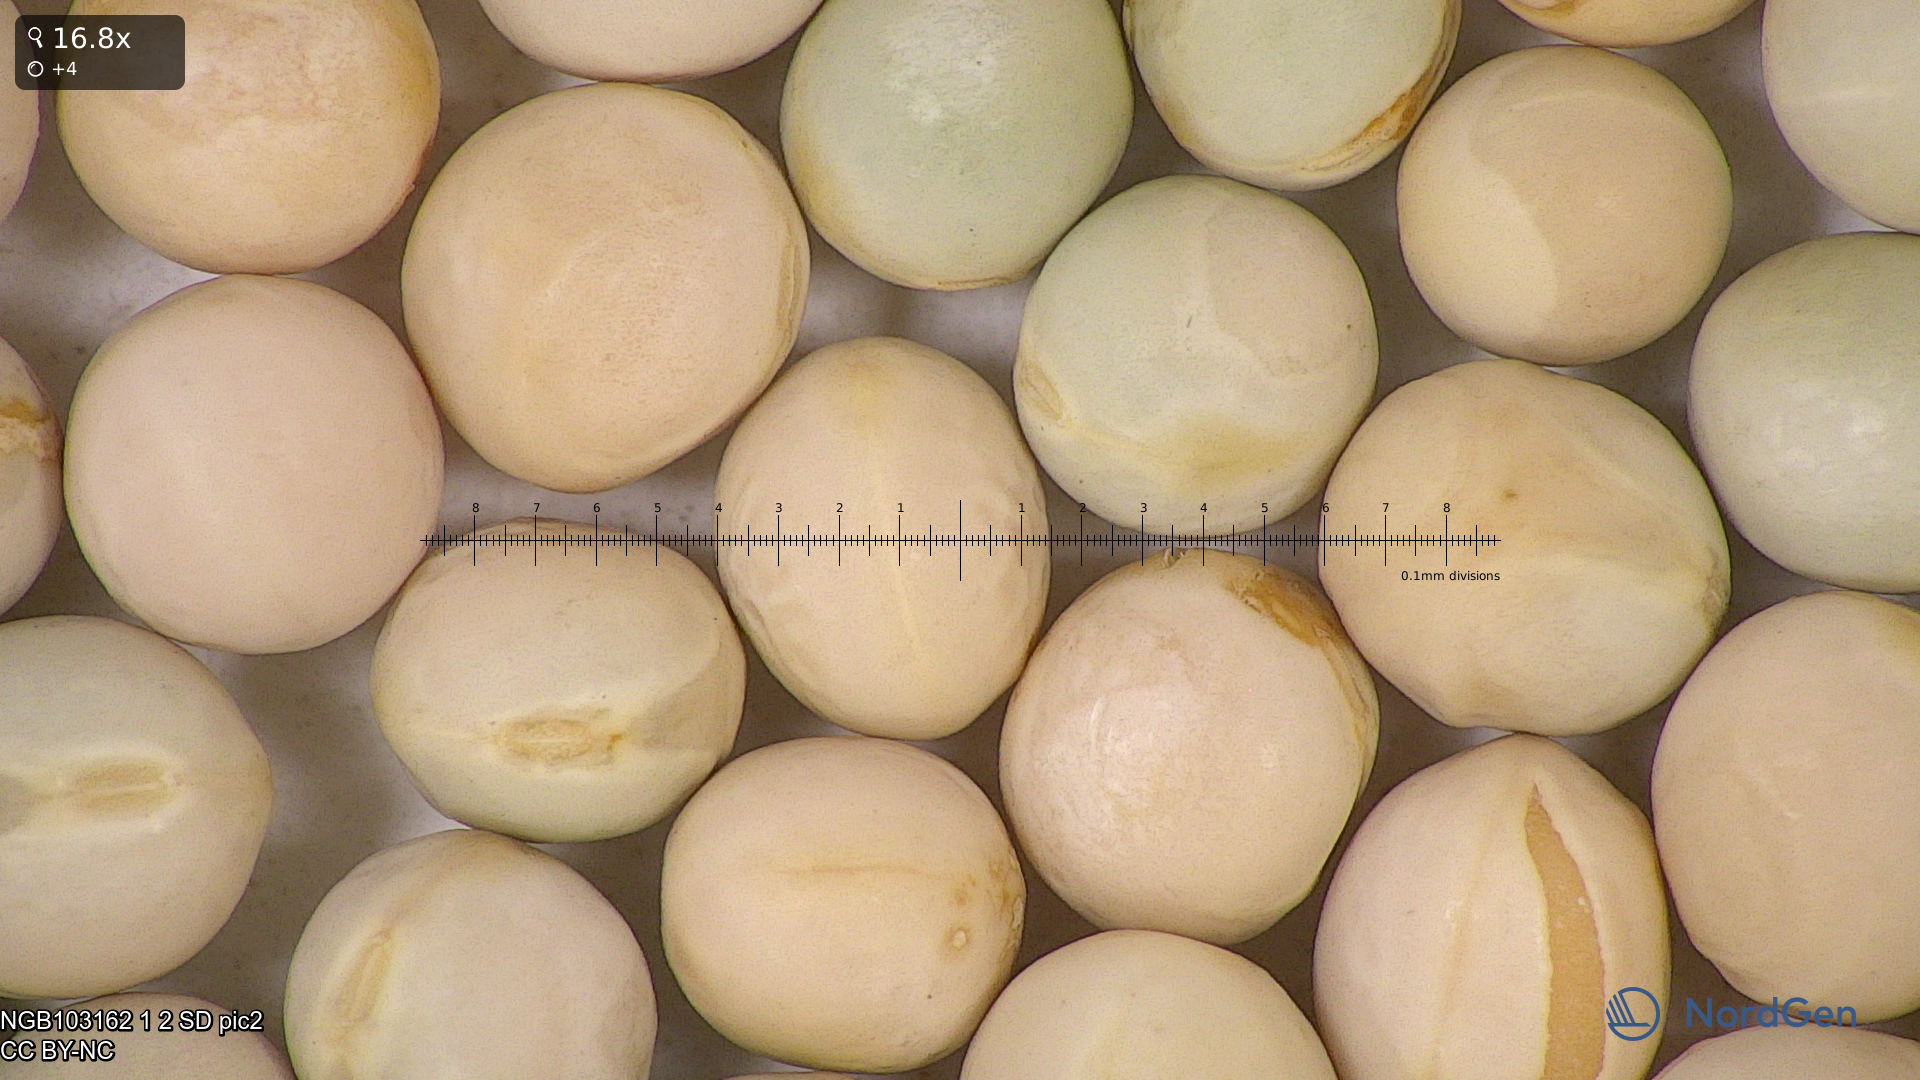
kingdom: Plantae
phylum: Tracheophyta
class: Magnoliopsida
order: Fabales
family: Fabaceae
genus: Lathyrus
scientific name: Lathyrus oleraceus
